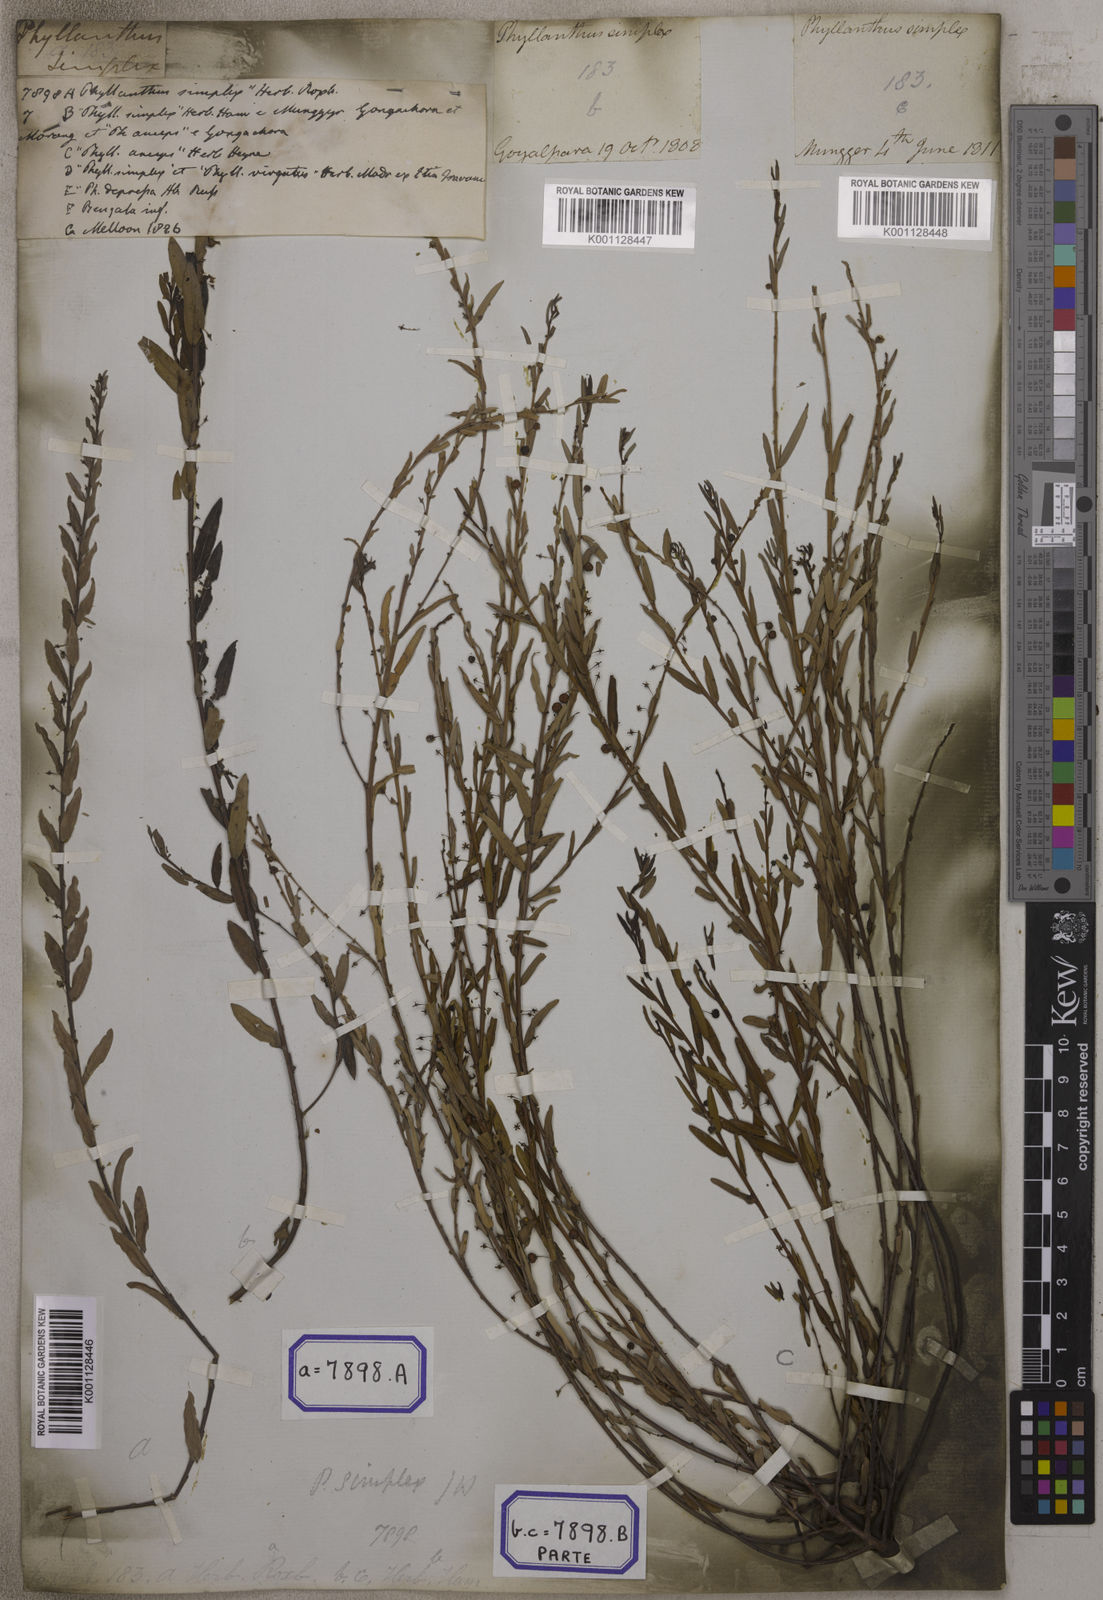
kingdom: Plantae
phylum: Tracheophyta
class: Magnoliopsida
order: Malpighiales
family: Euphorbiaceae
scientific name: Euphorbiaceae
